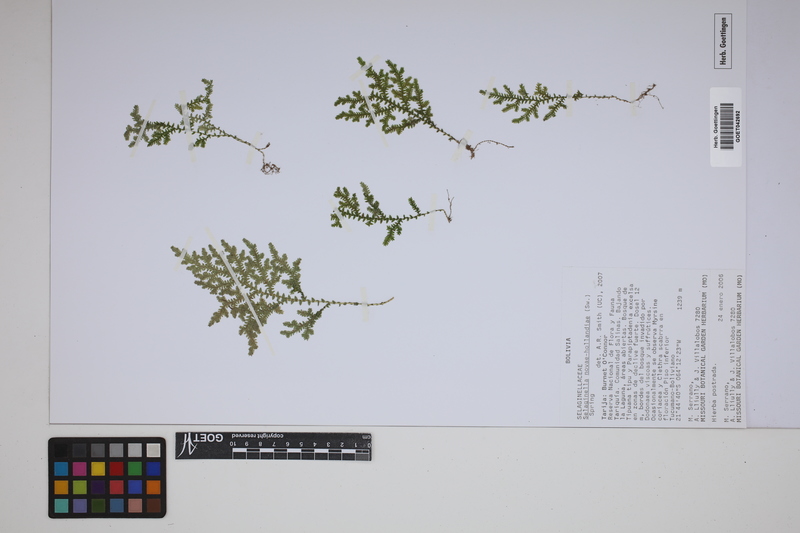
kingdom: Plantae
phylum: Tracheophyta
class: Lycopodiopsida
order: Selaginellales
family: Selaginellaceae
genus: Selaginella
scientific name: Selaginella novae-hollandiae
